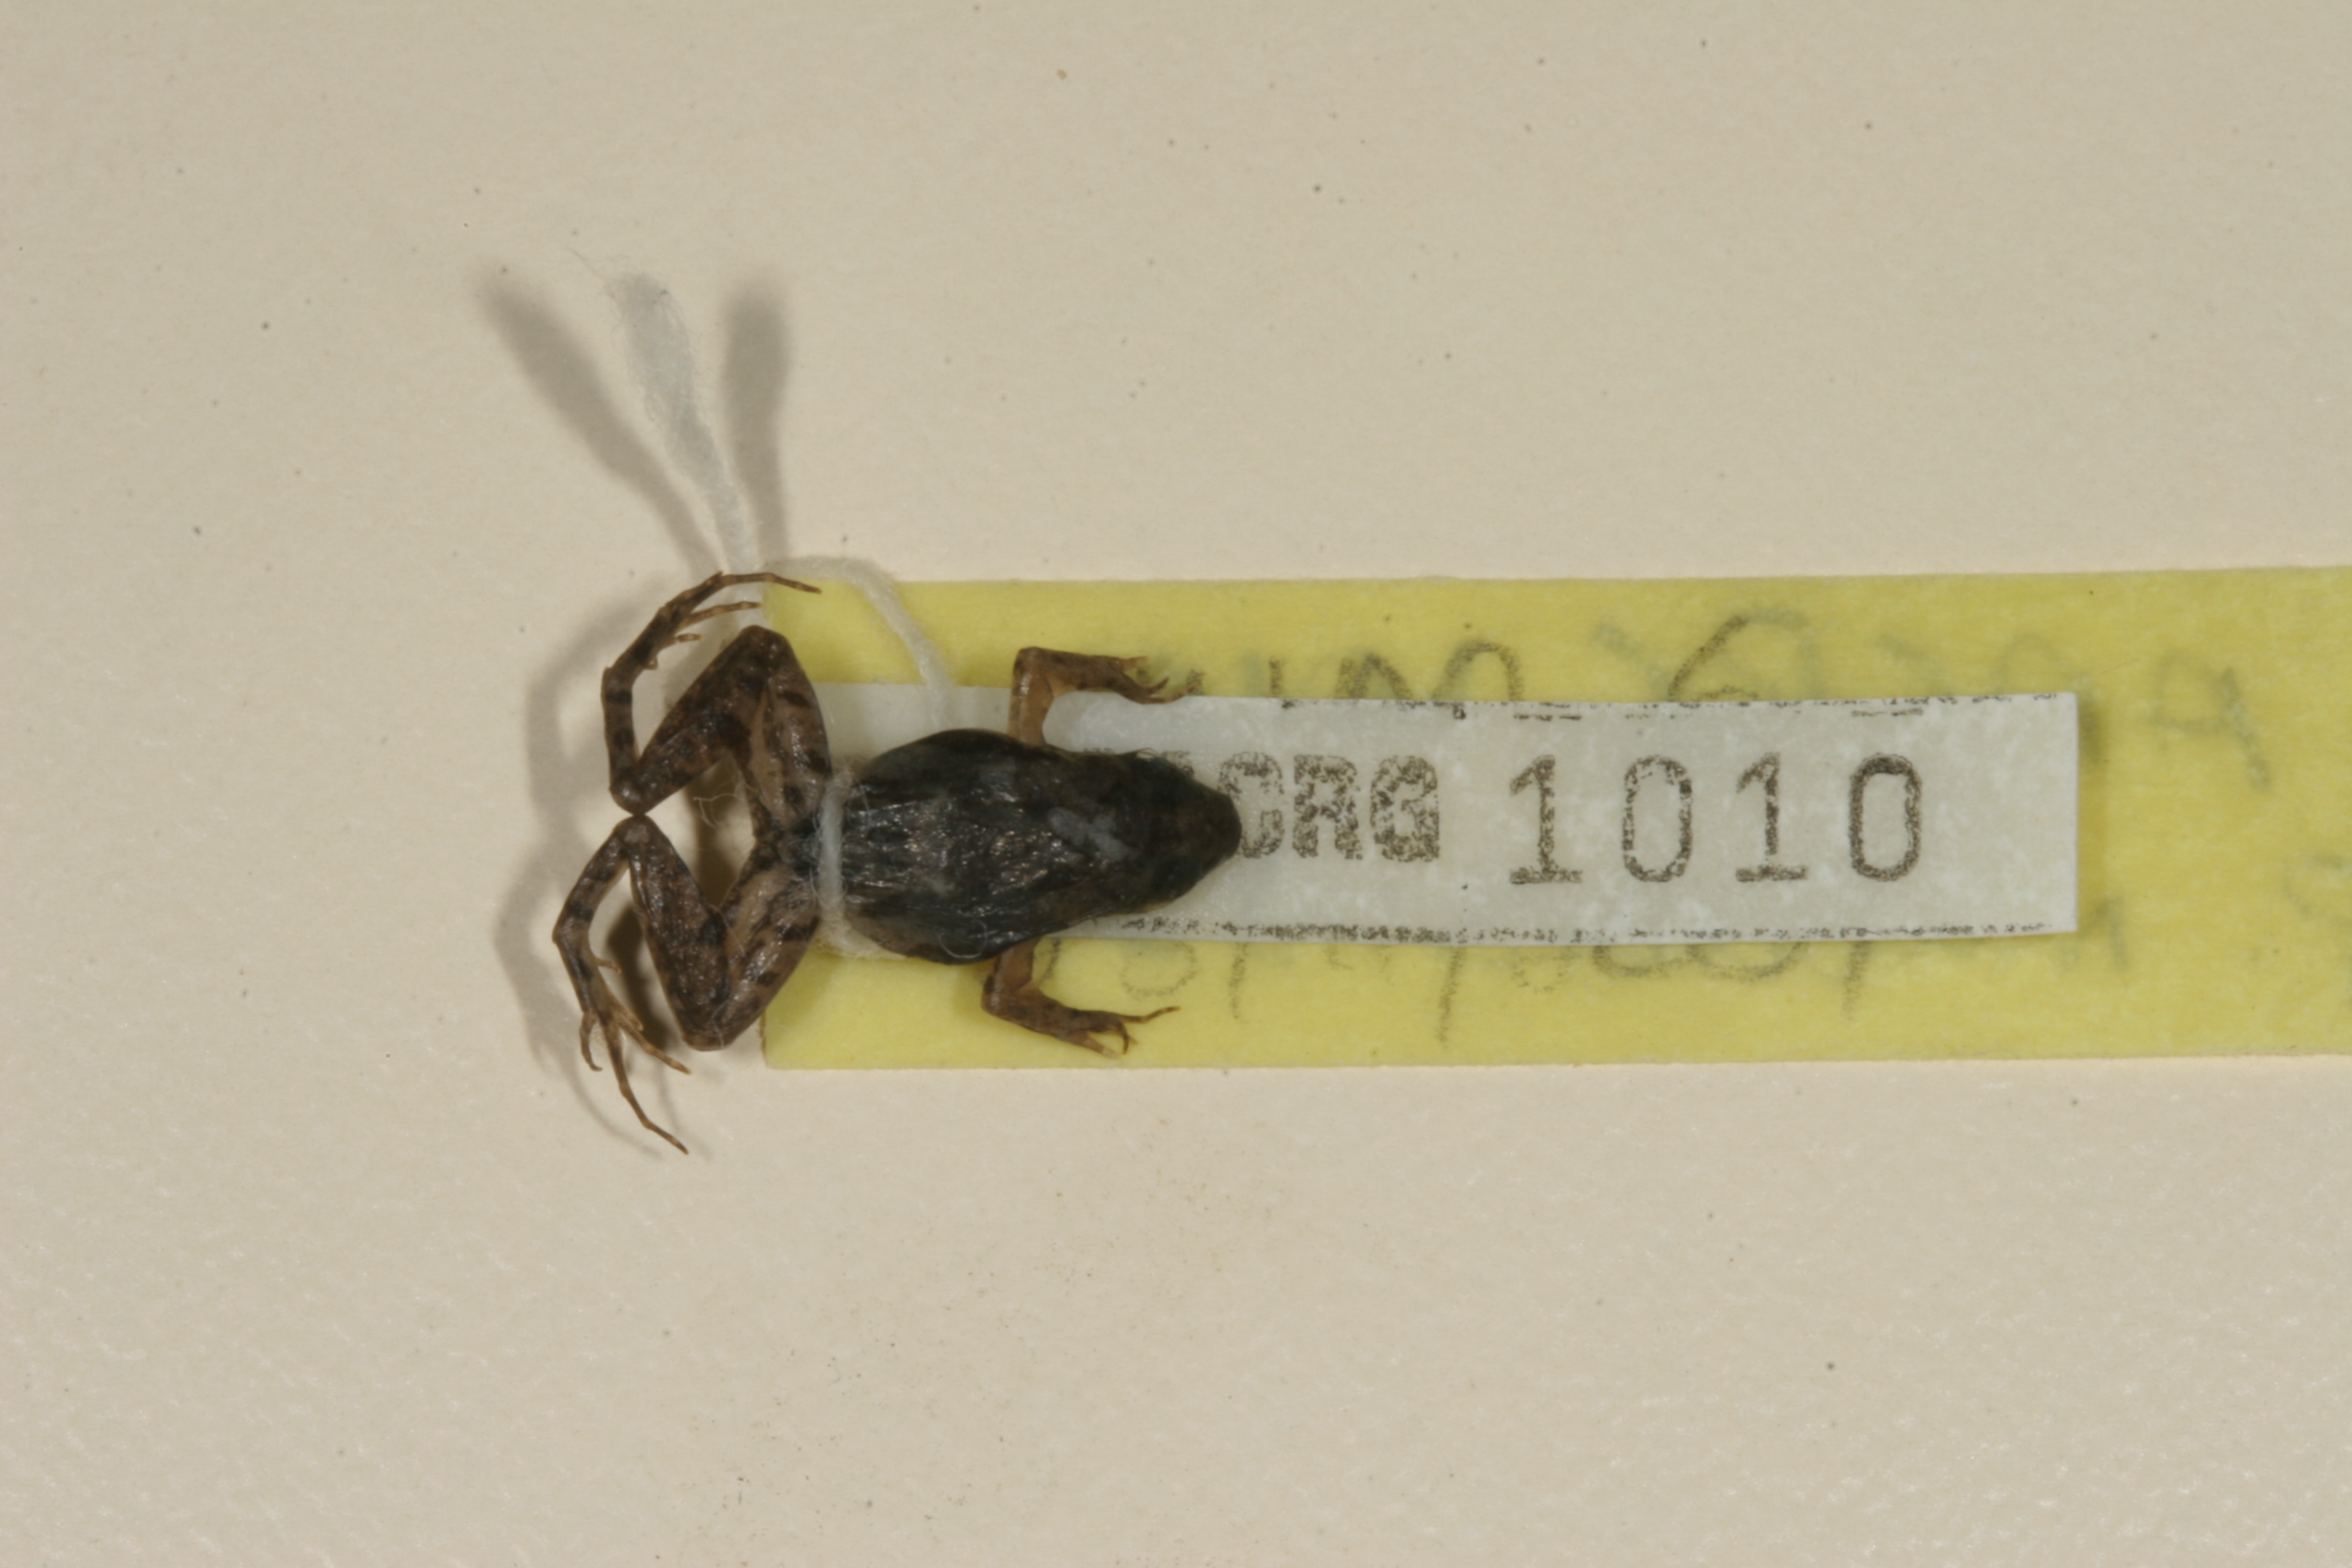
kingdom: Animalia
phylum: Chordata
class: Amphibia
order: Anura
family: Phrynobatrachidae
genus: Phrynobatrachus
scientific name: Phrynobatrachus parvulus
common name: Dwarf puddle frog
